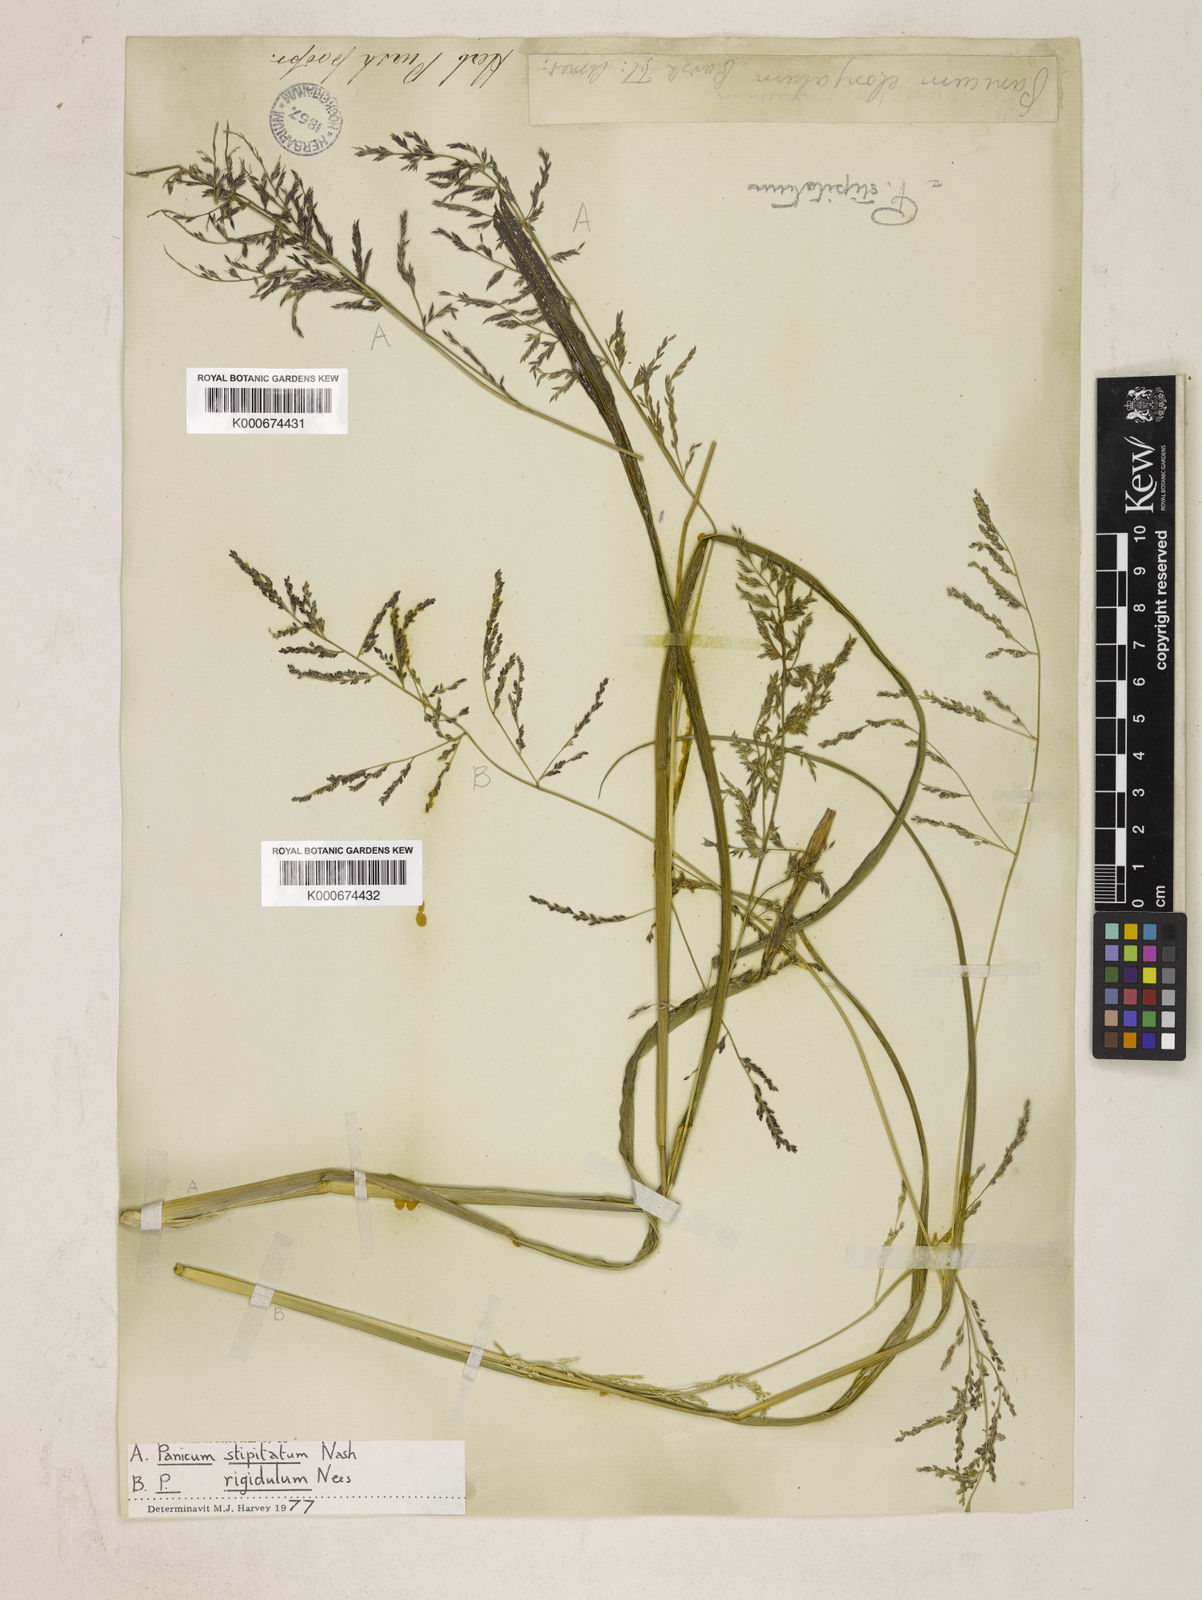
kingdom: Plantae
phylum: Tracheophyta
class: Liliopsida
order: Poales
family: Poaceae
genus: Coleataenia
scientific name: Coleataenia pulchra
